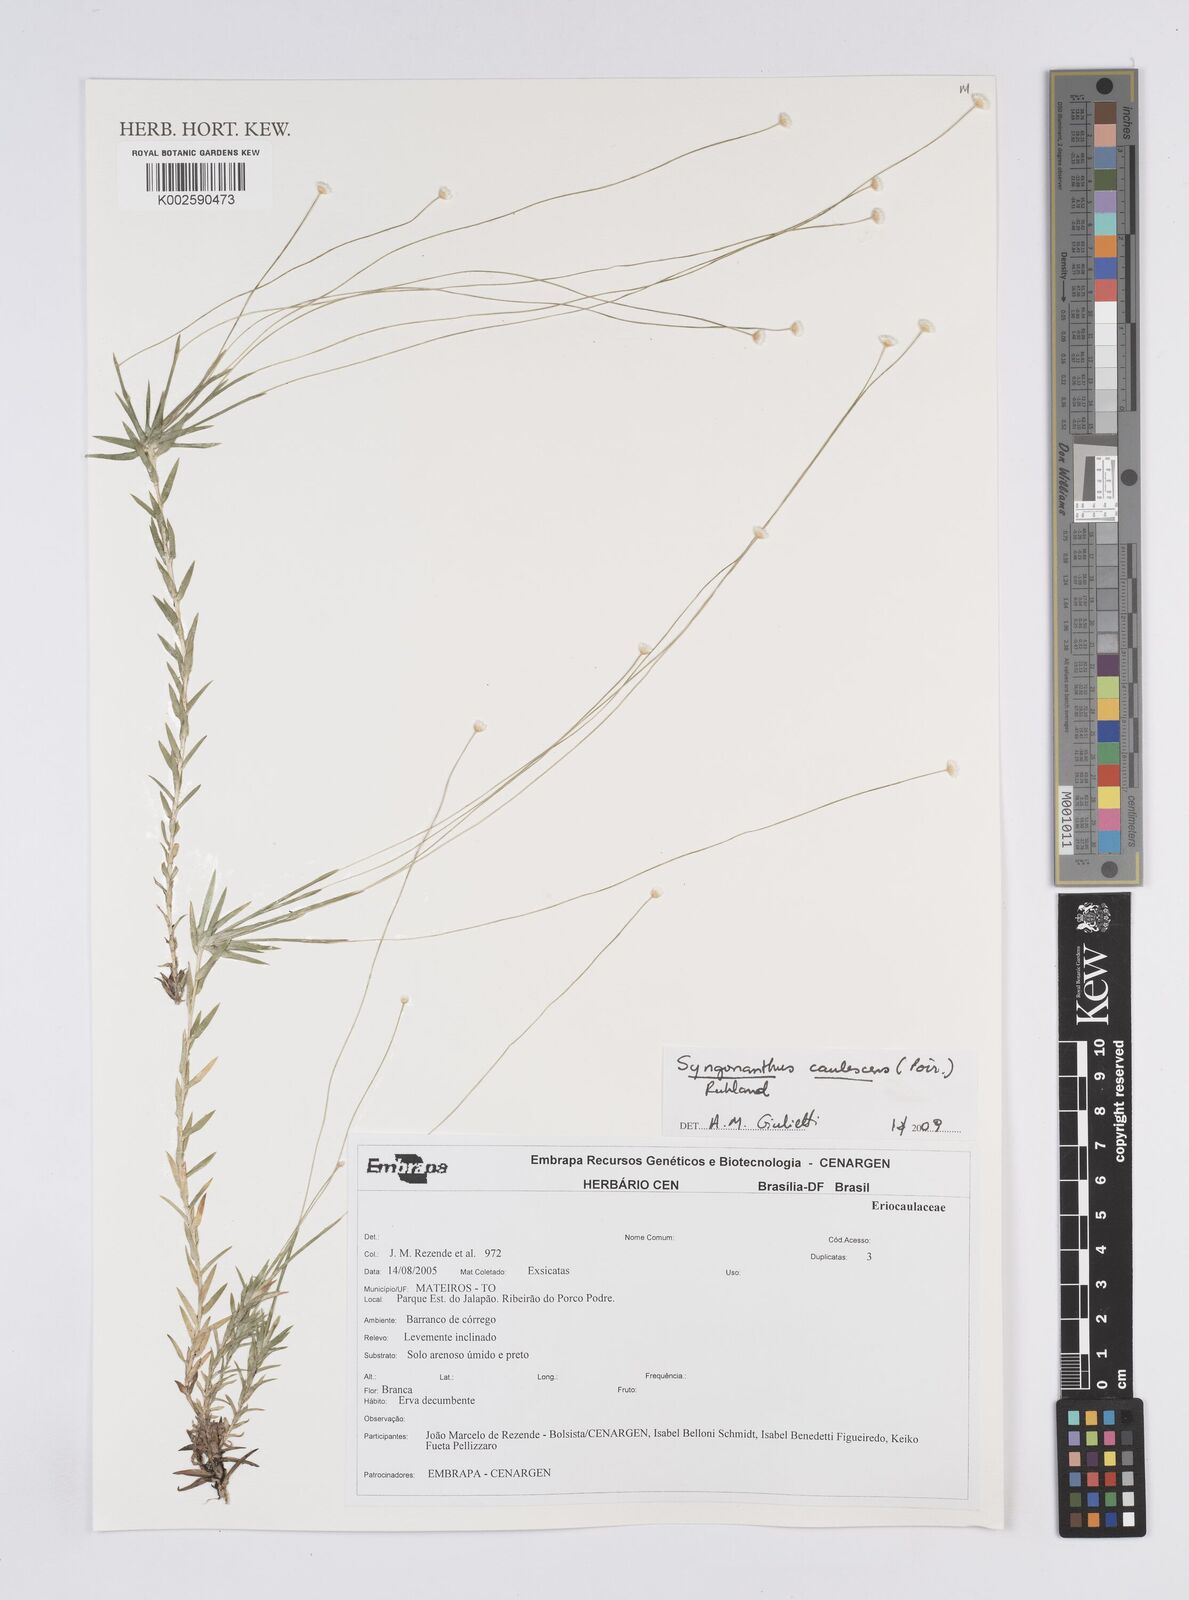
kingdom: Plantae
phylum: Tracheophyta
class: Liliopsida
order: Poales
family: Eriocaulaceae
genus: Syngonanthus
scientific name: Syngonanthus caulescens
